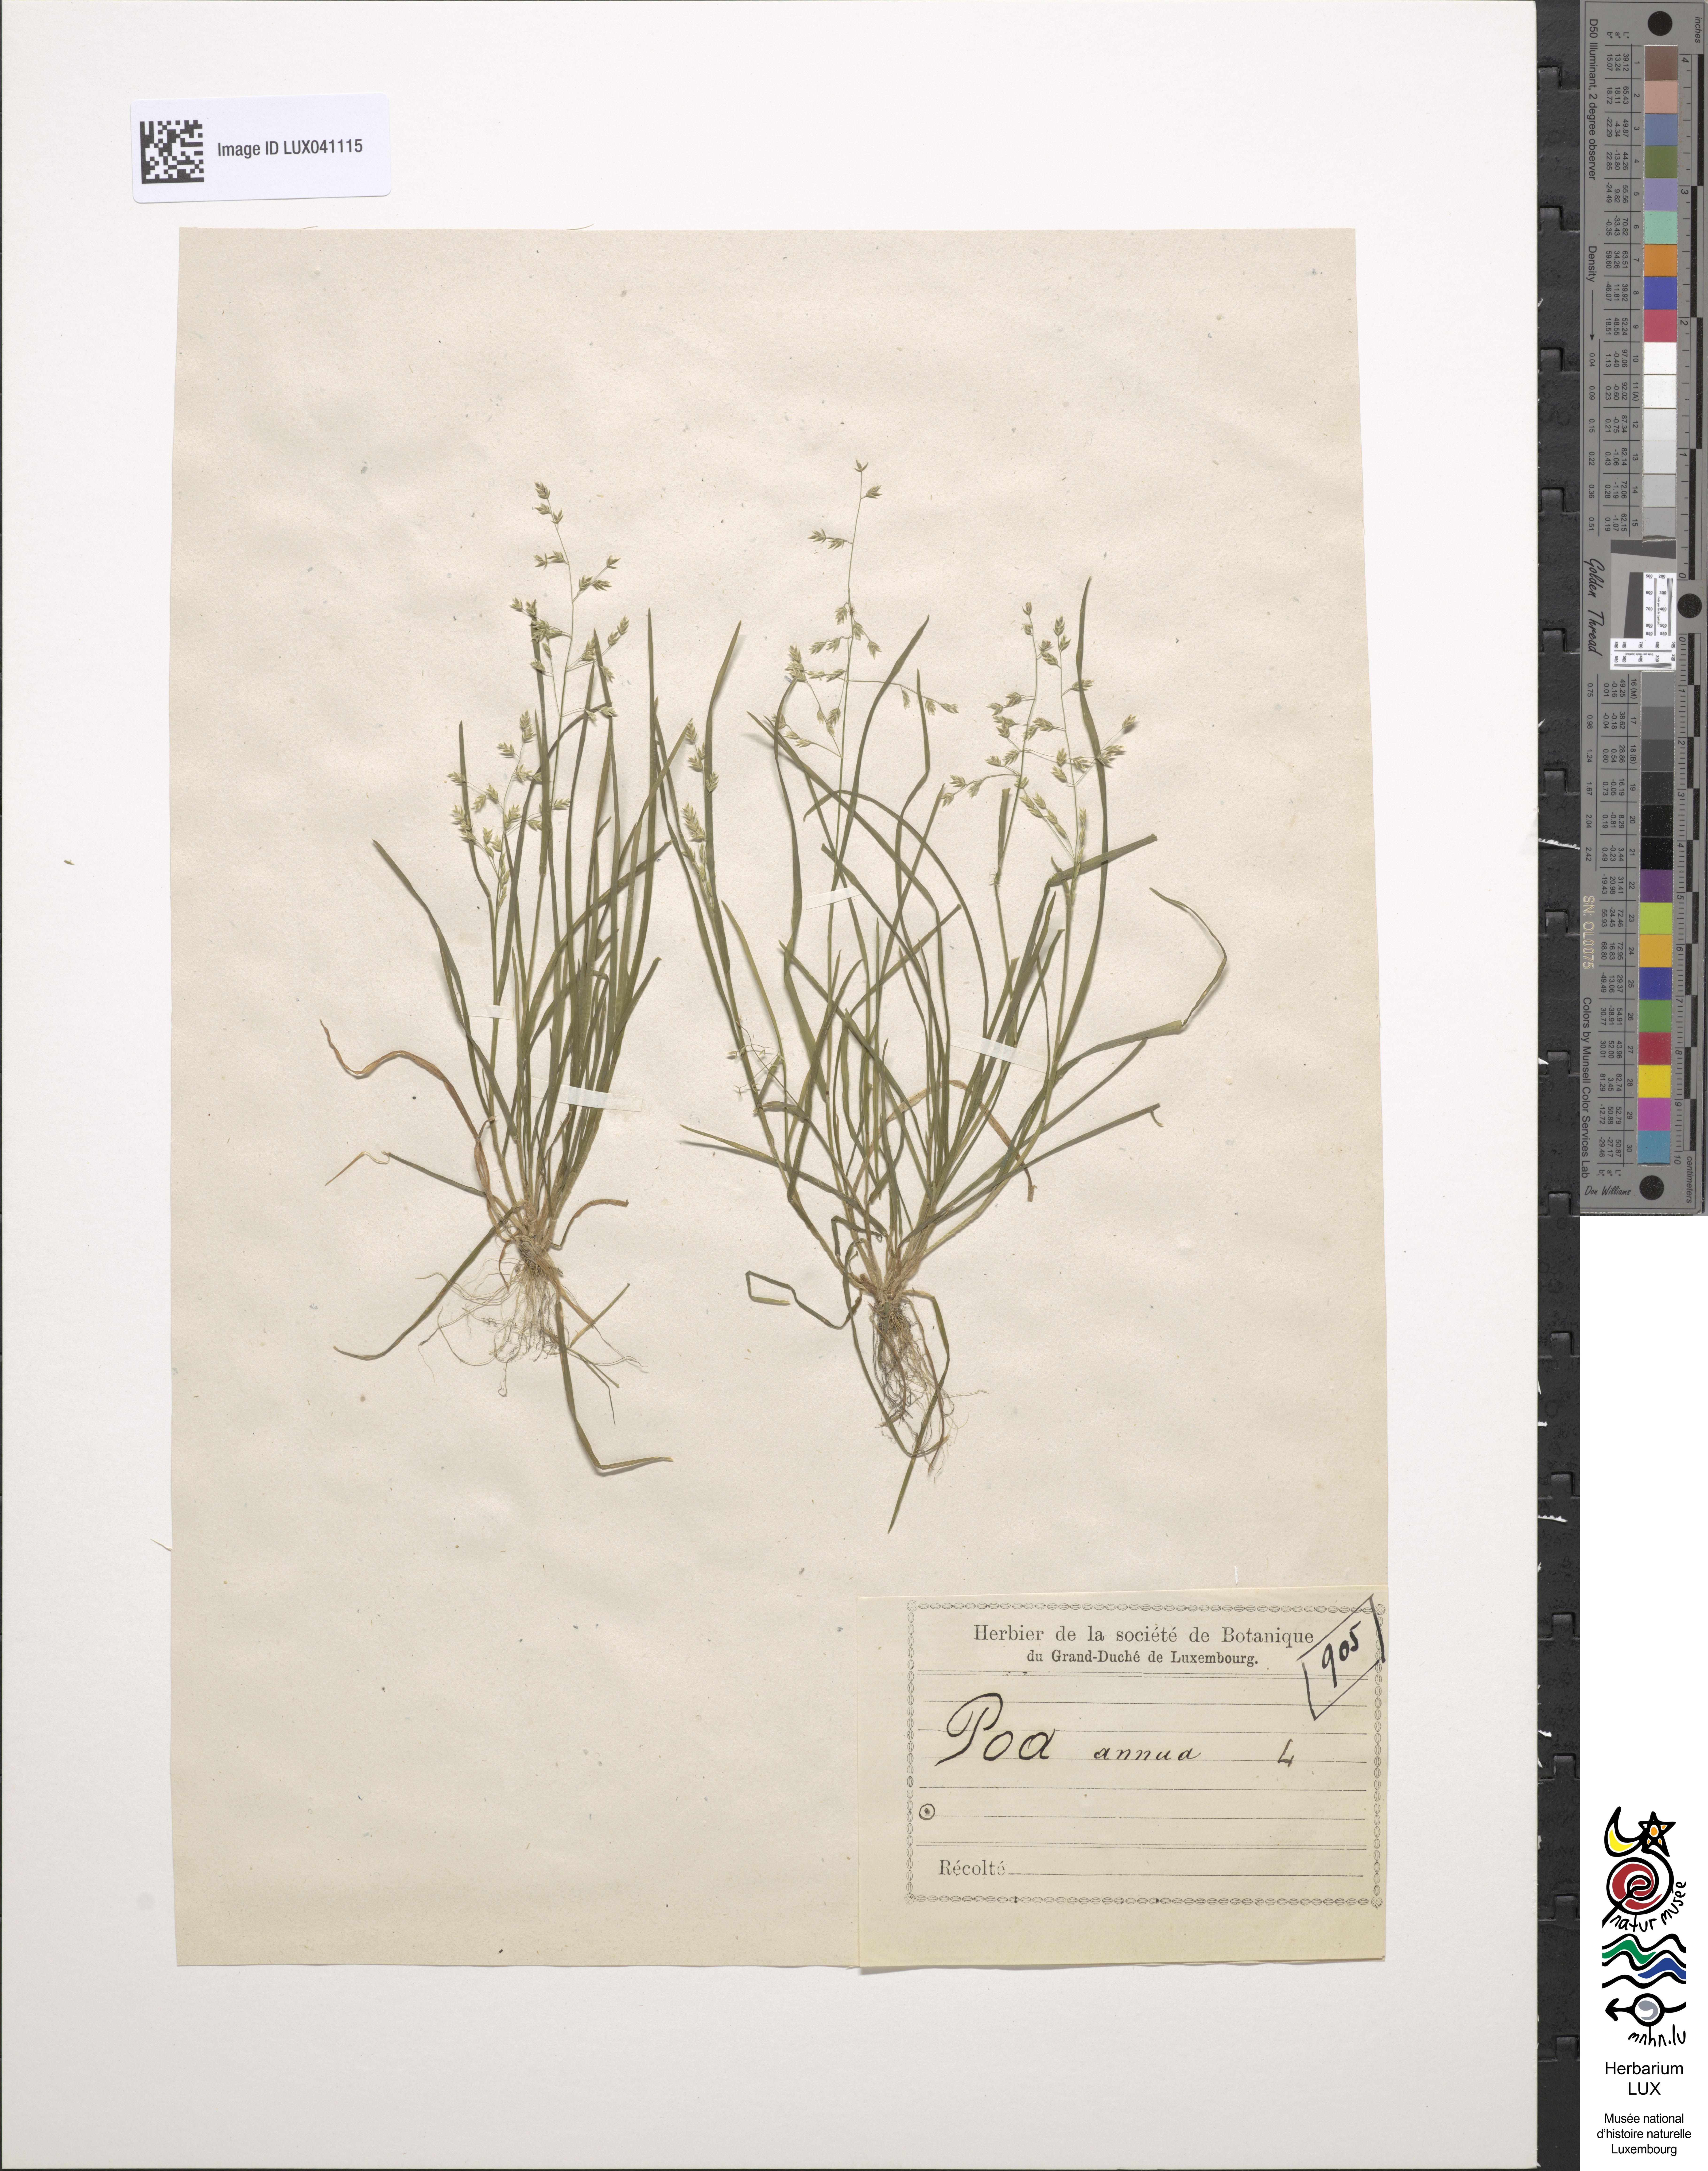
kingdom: Plantae
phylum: Tracheophyta
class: Liliopsida
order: Poales
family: Poaceae
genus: Poa
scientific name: Poa annua
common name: Annual bluegrass
